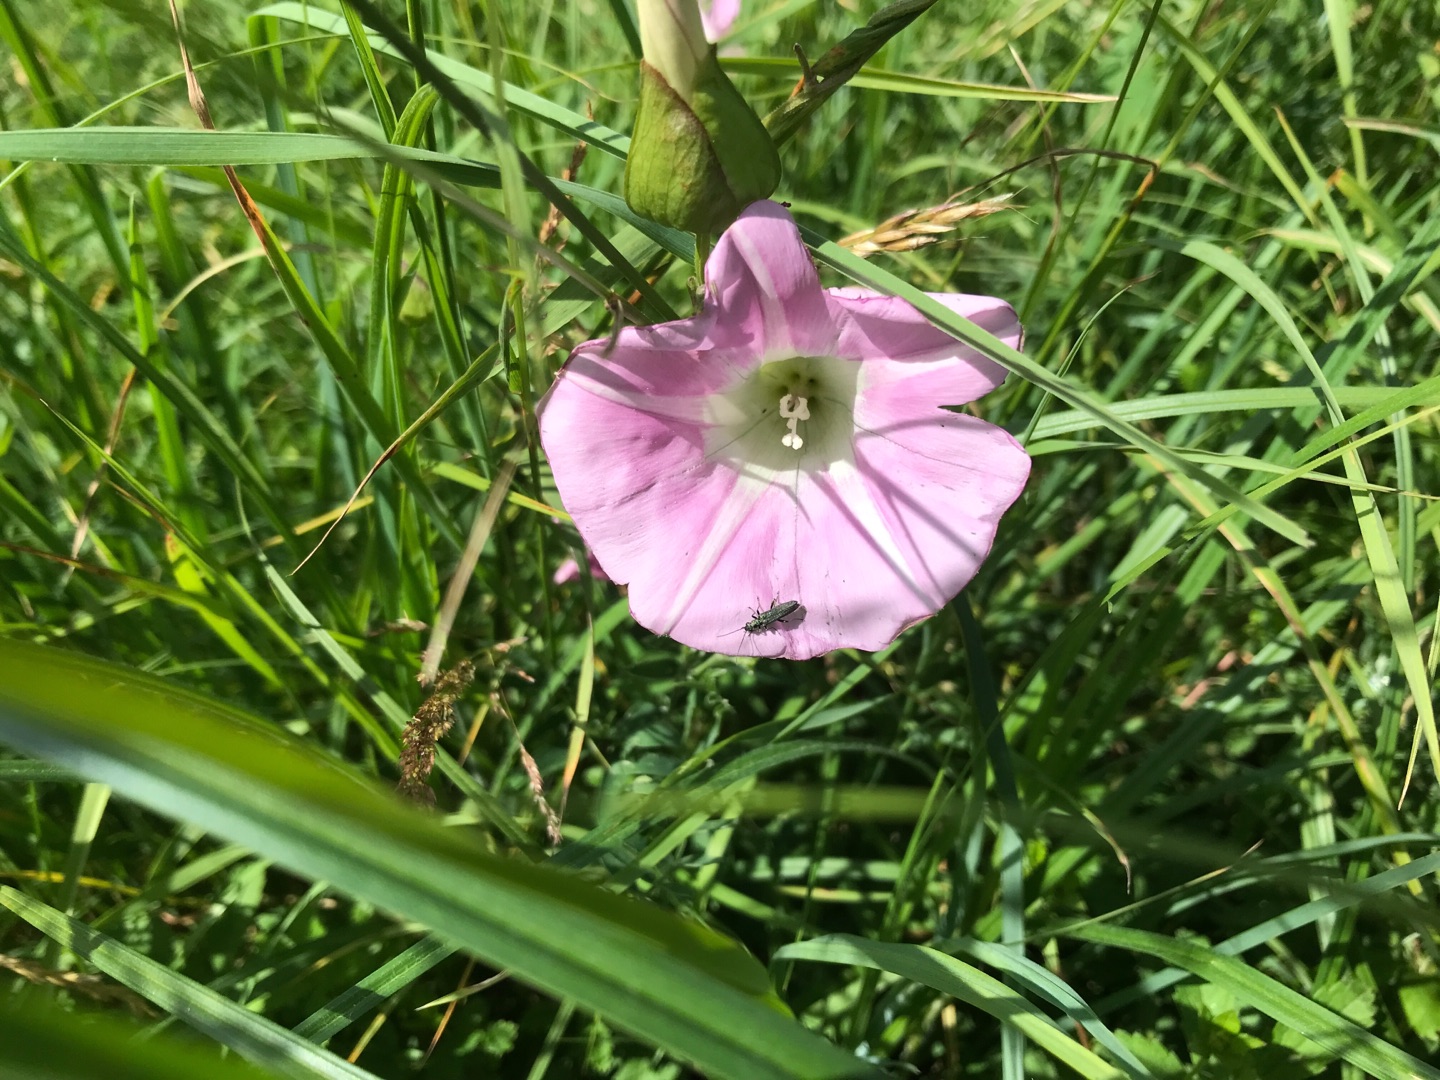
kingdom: Plantae
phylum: Tracheophyta
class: Magnoliopsida
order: Solanales
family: Convolvulaceae
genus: Calystegia
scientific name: Calystegia pulchra
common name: Have-snerle
